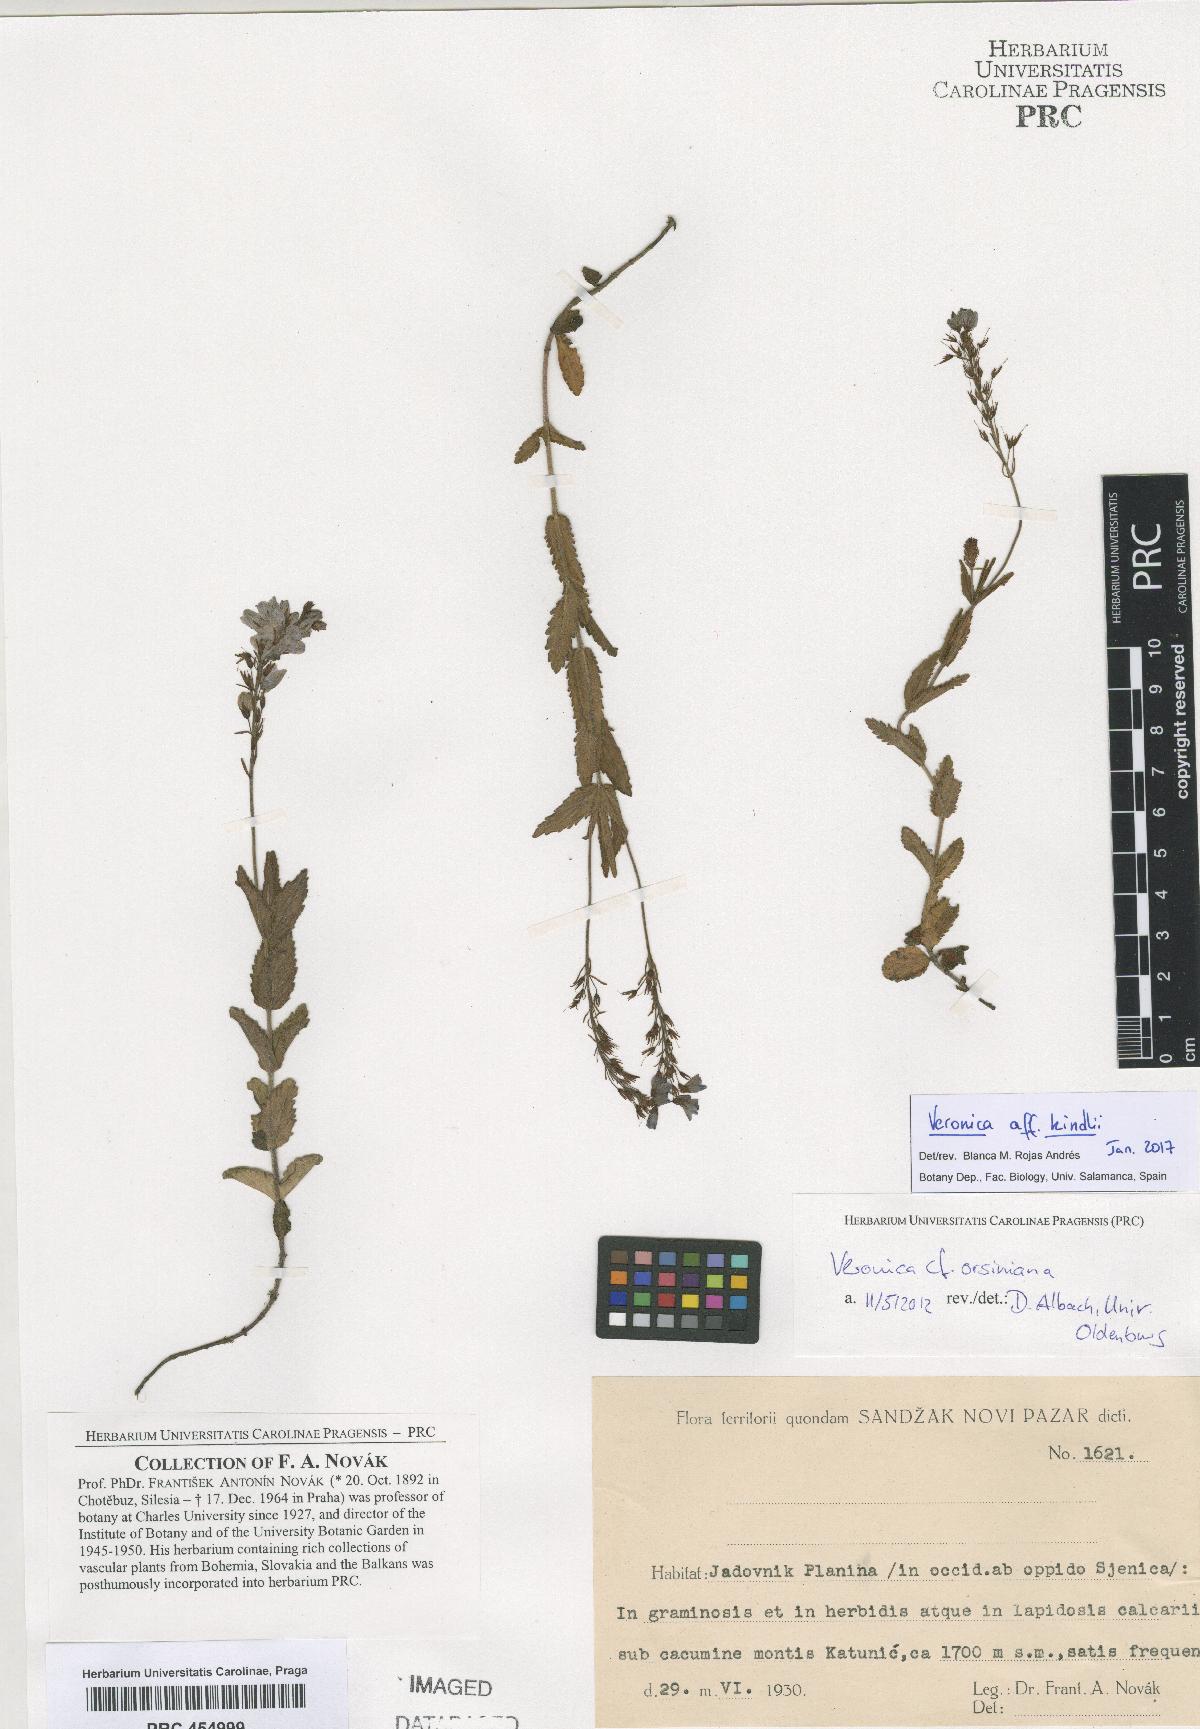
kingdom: Plantae
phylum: Tracheophyta
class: Magnoliopsida
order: Lamiales
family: Plantaginaceae
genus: Veronica
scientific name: Veronica orsiniana
